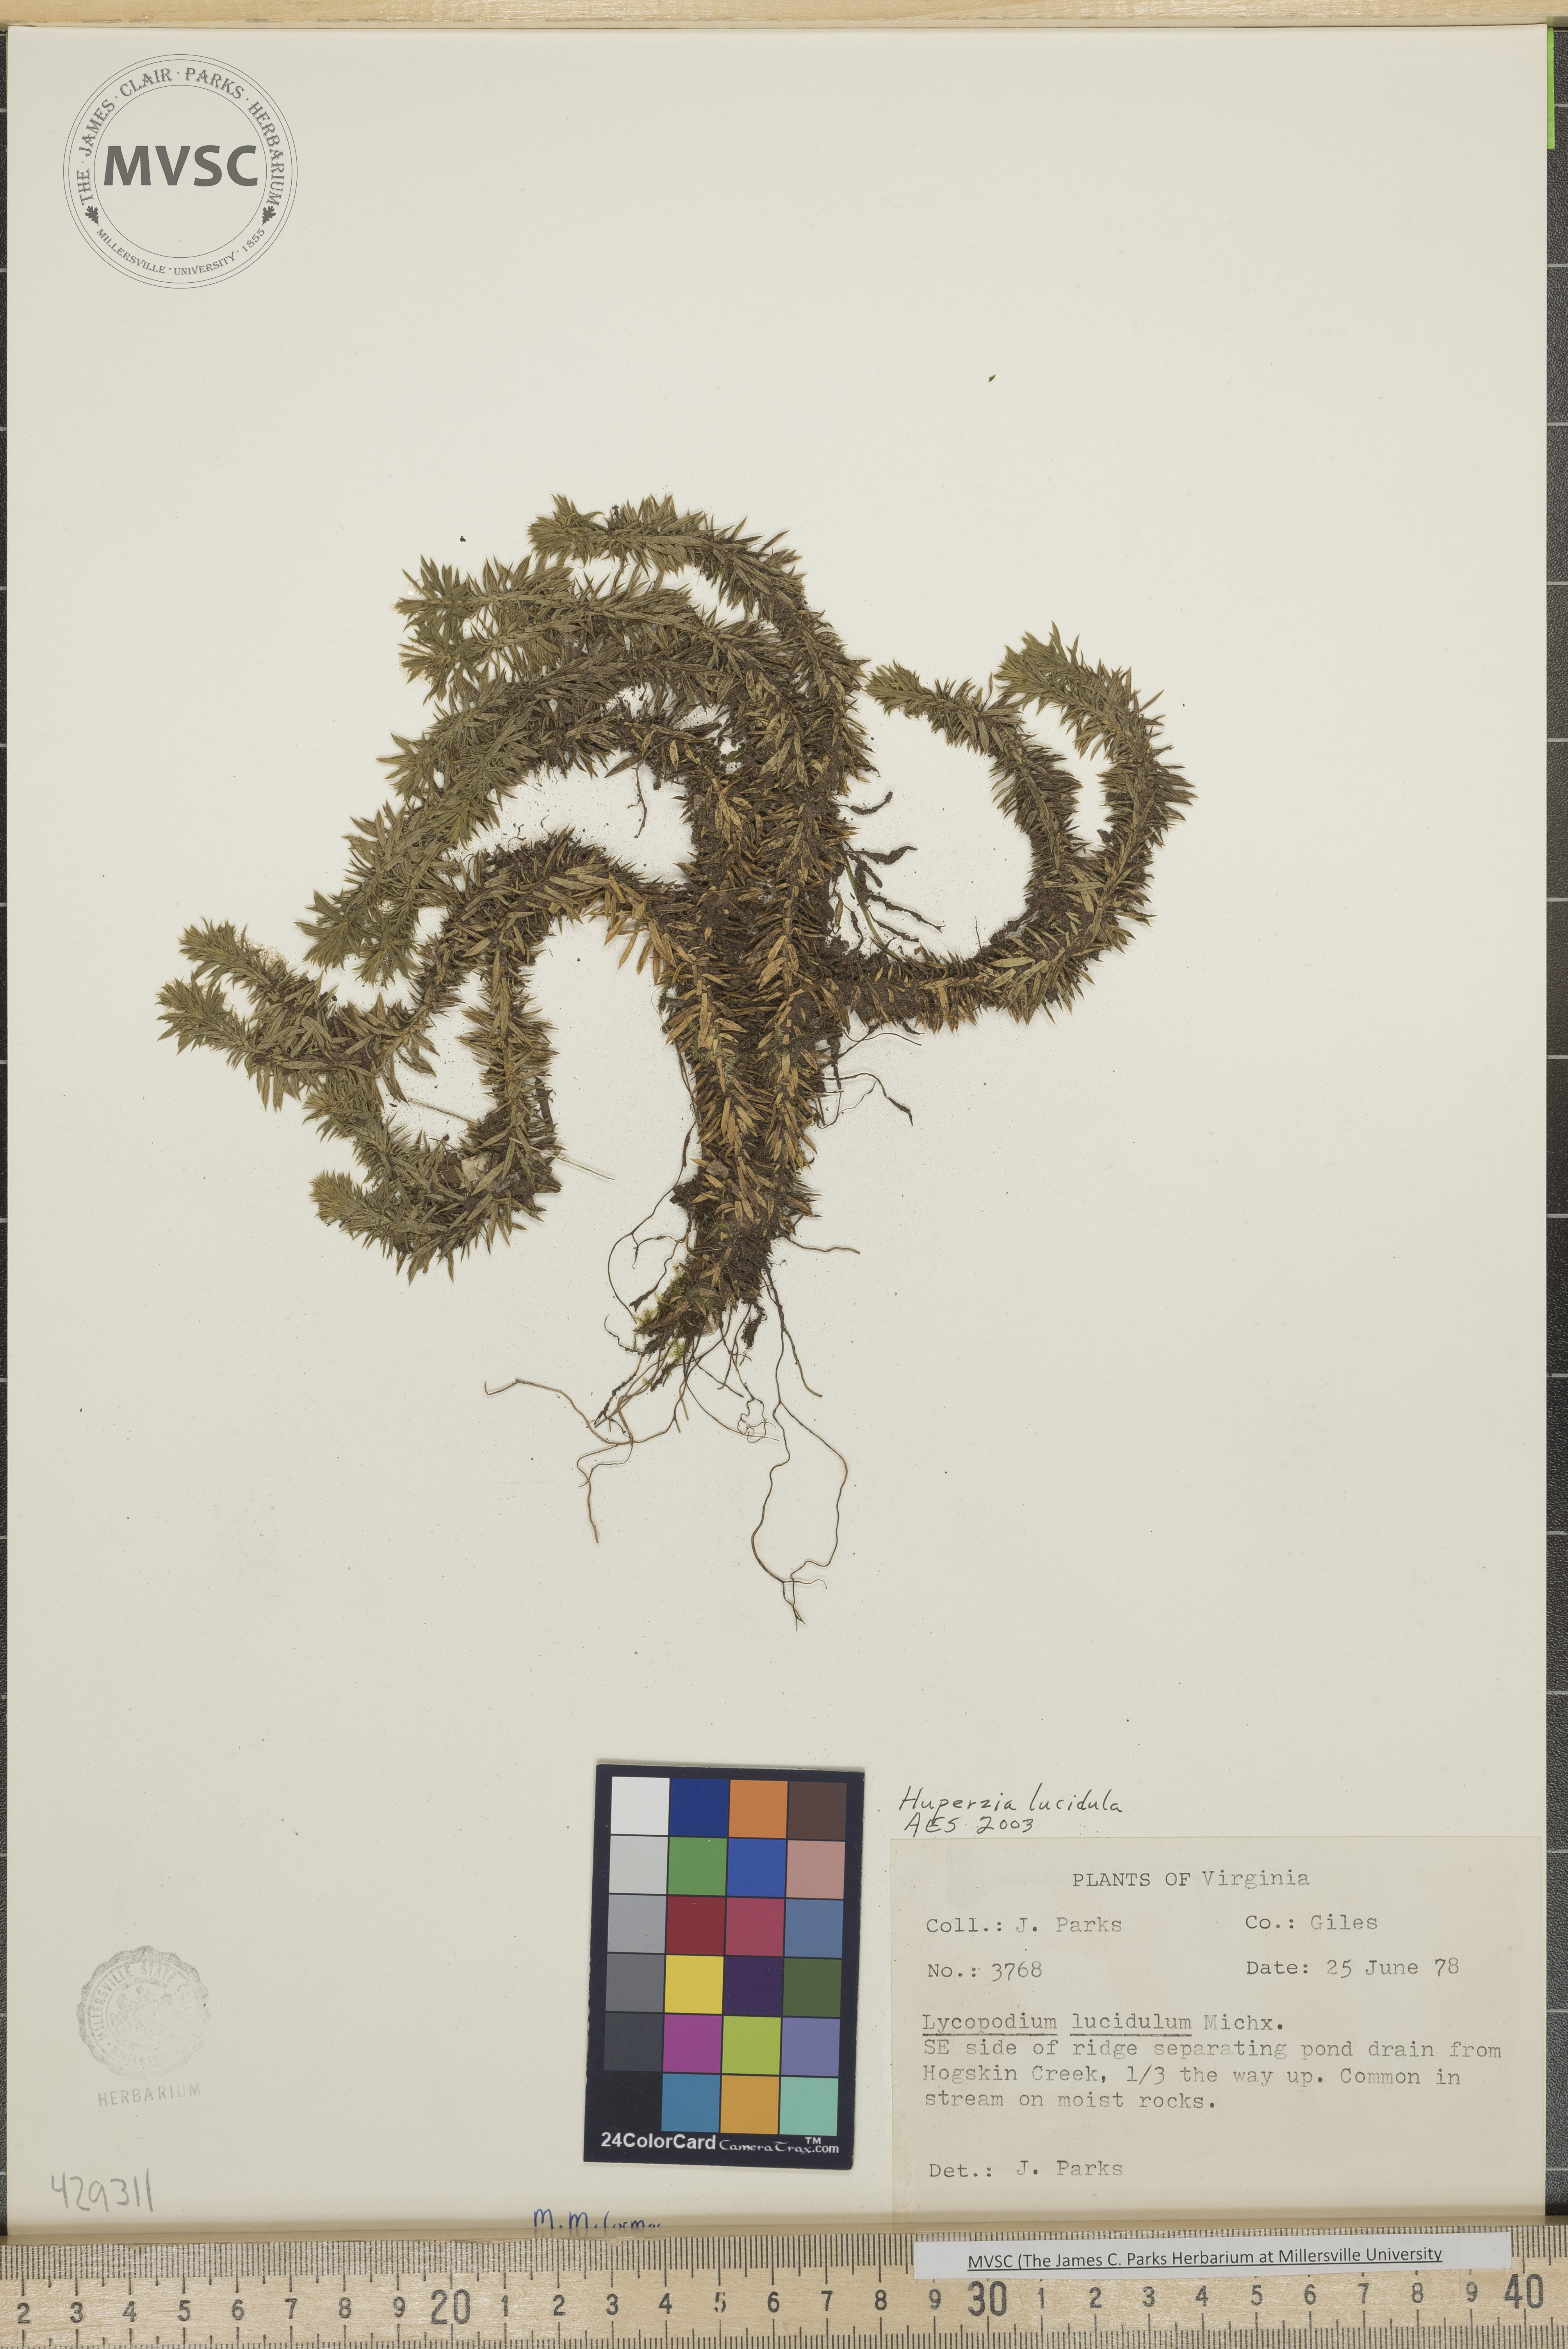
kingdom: Plantae
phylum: Tracheophyta
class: Lycopodiopsida
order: Lycopodiales
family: Lycopodiaceae
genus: Huperzia
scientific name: Huperzia lucidula
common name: Shining clubmoss
